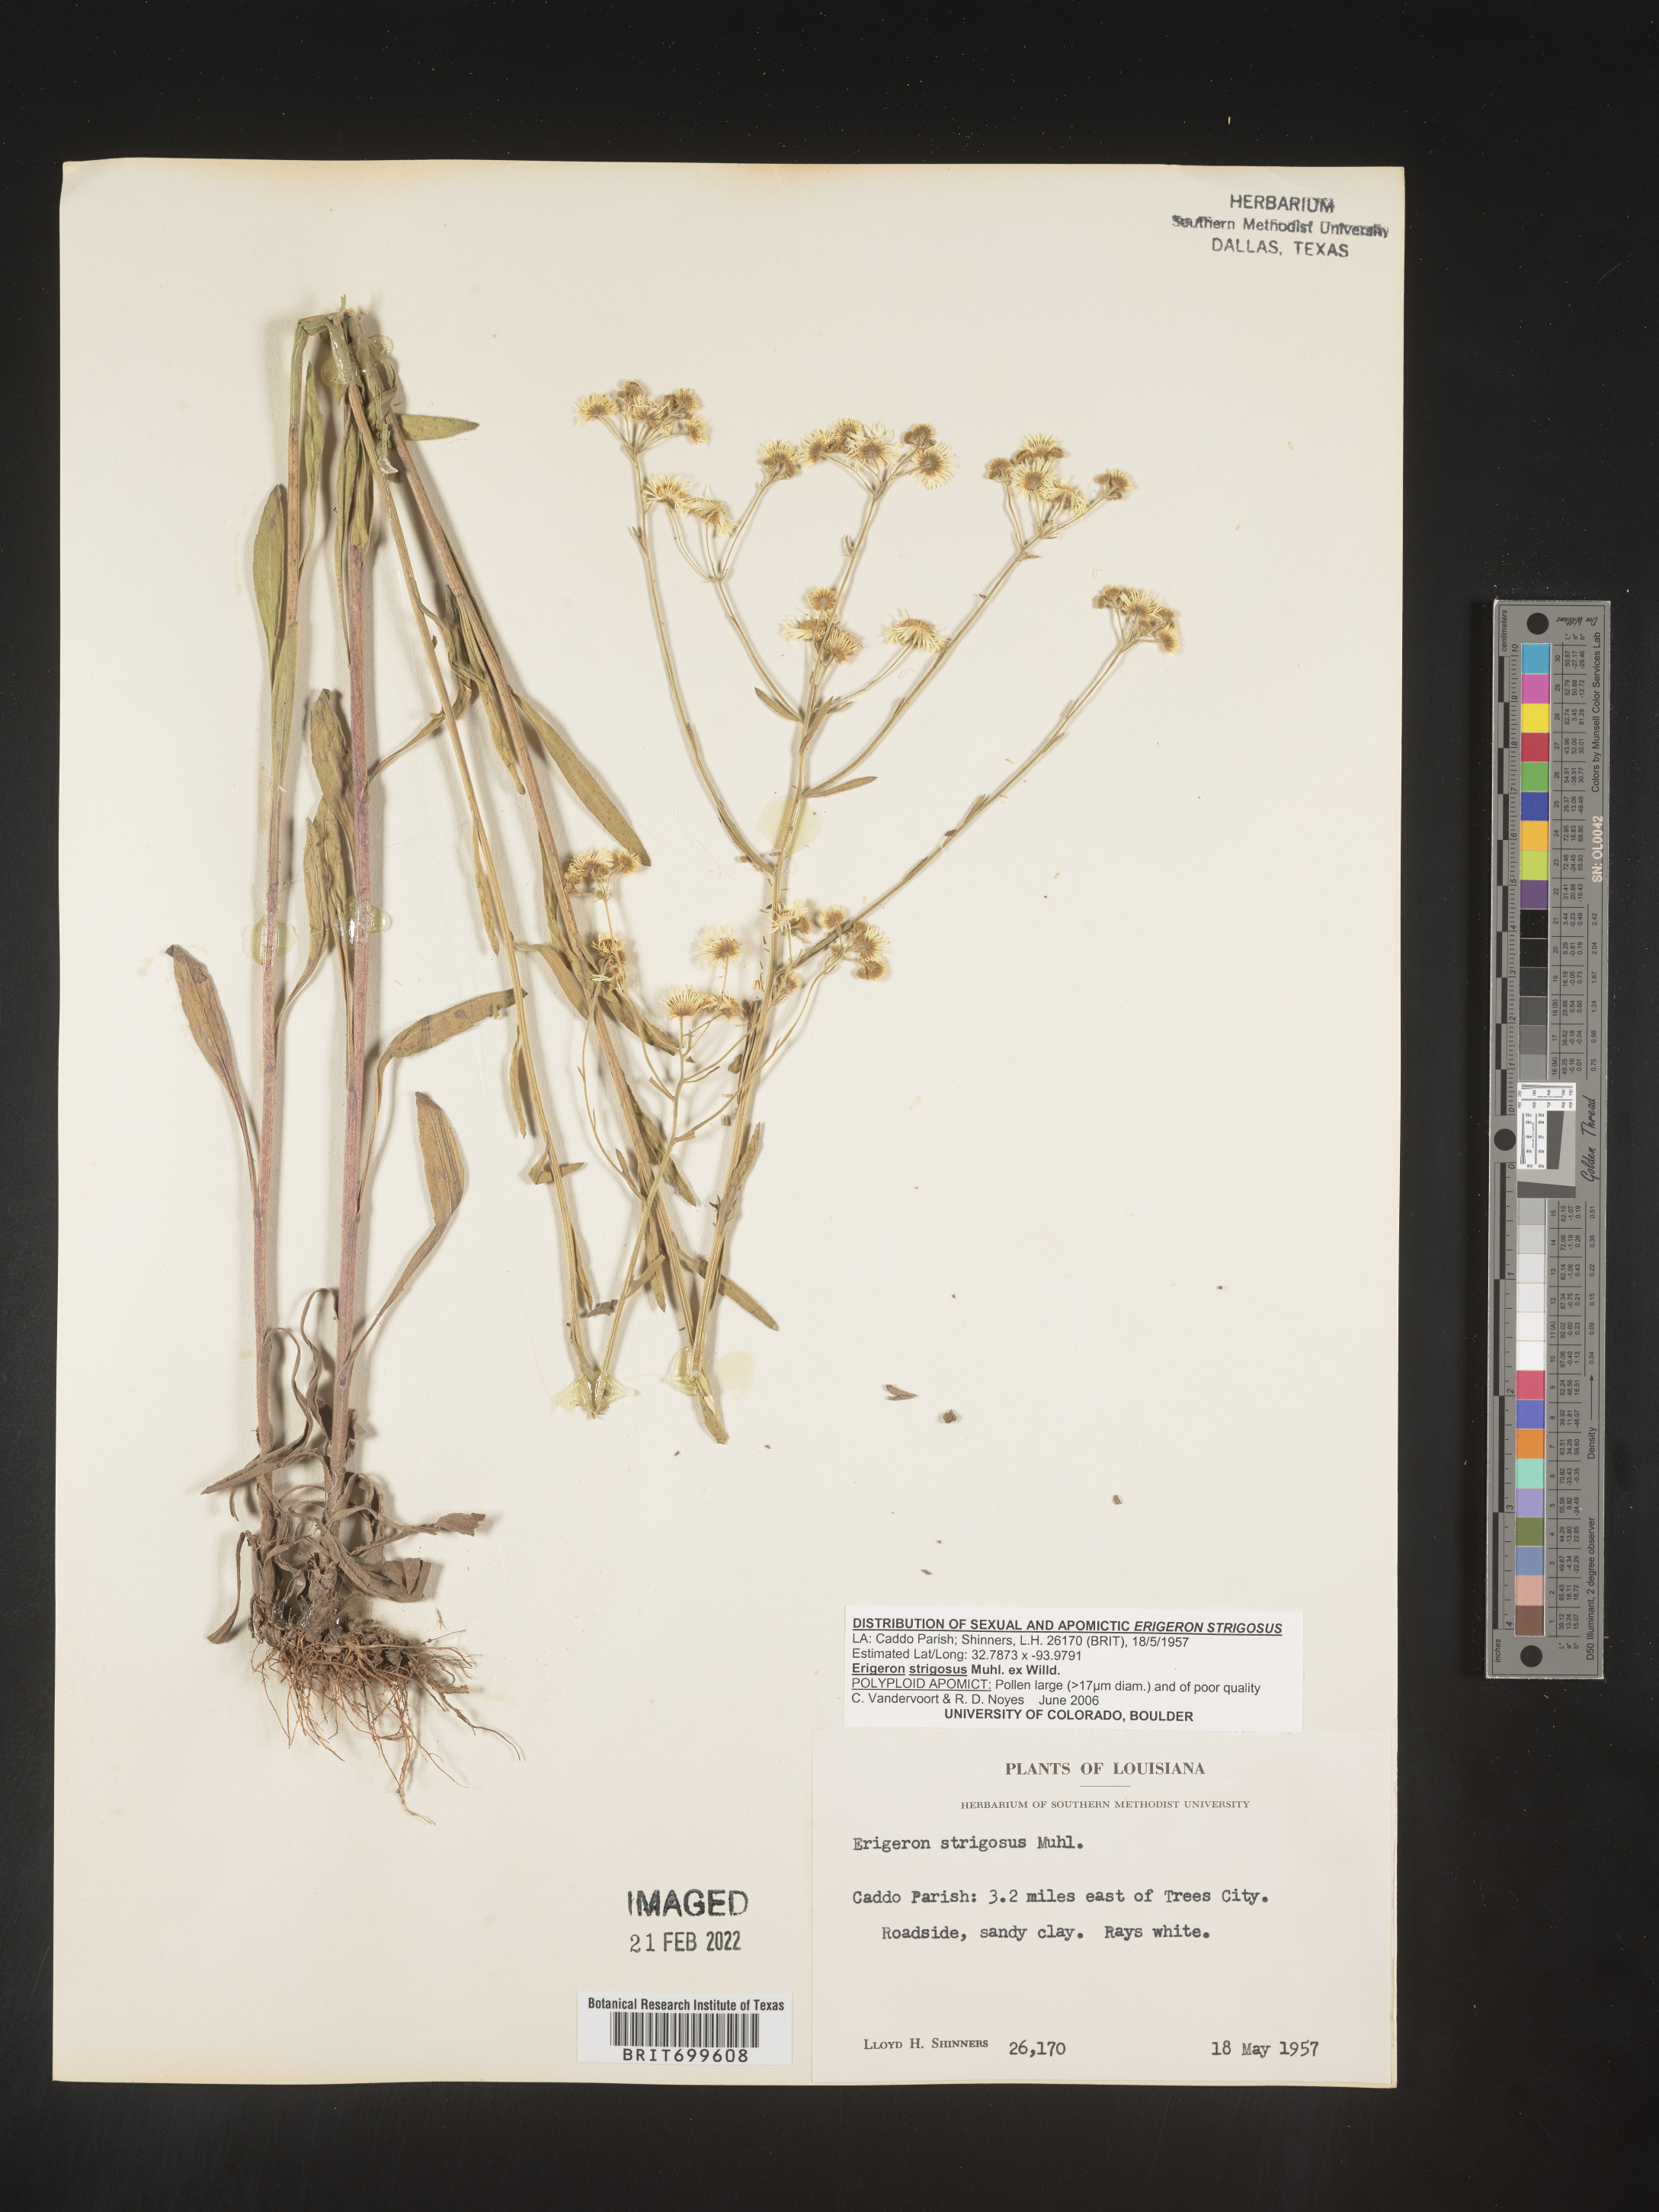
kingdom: Plantae
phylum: Tracheophyta
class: Magnoliopsida
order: Asterales
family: Asteraceae
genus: Erigeron
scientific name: Erigeron strigosus
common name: Common eastern fleabane
